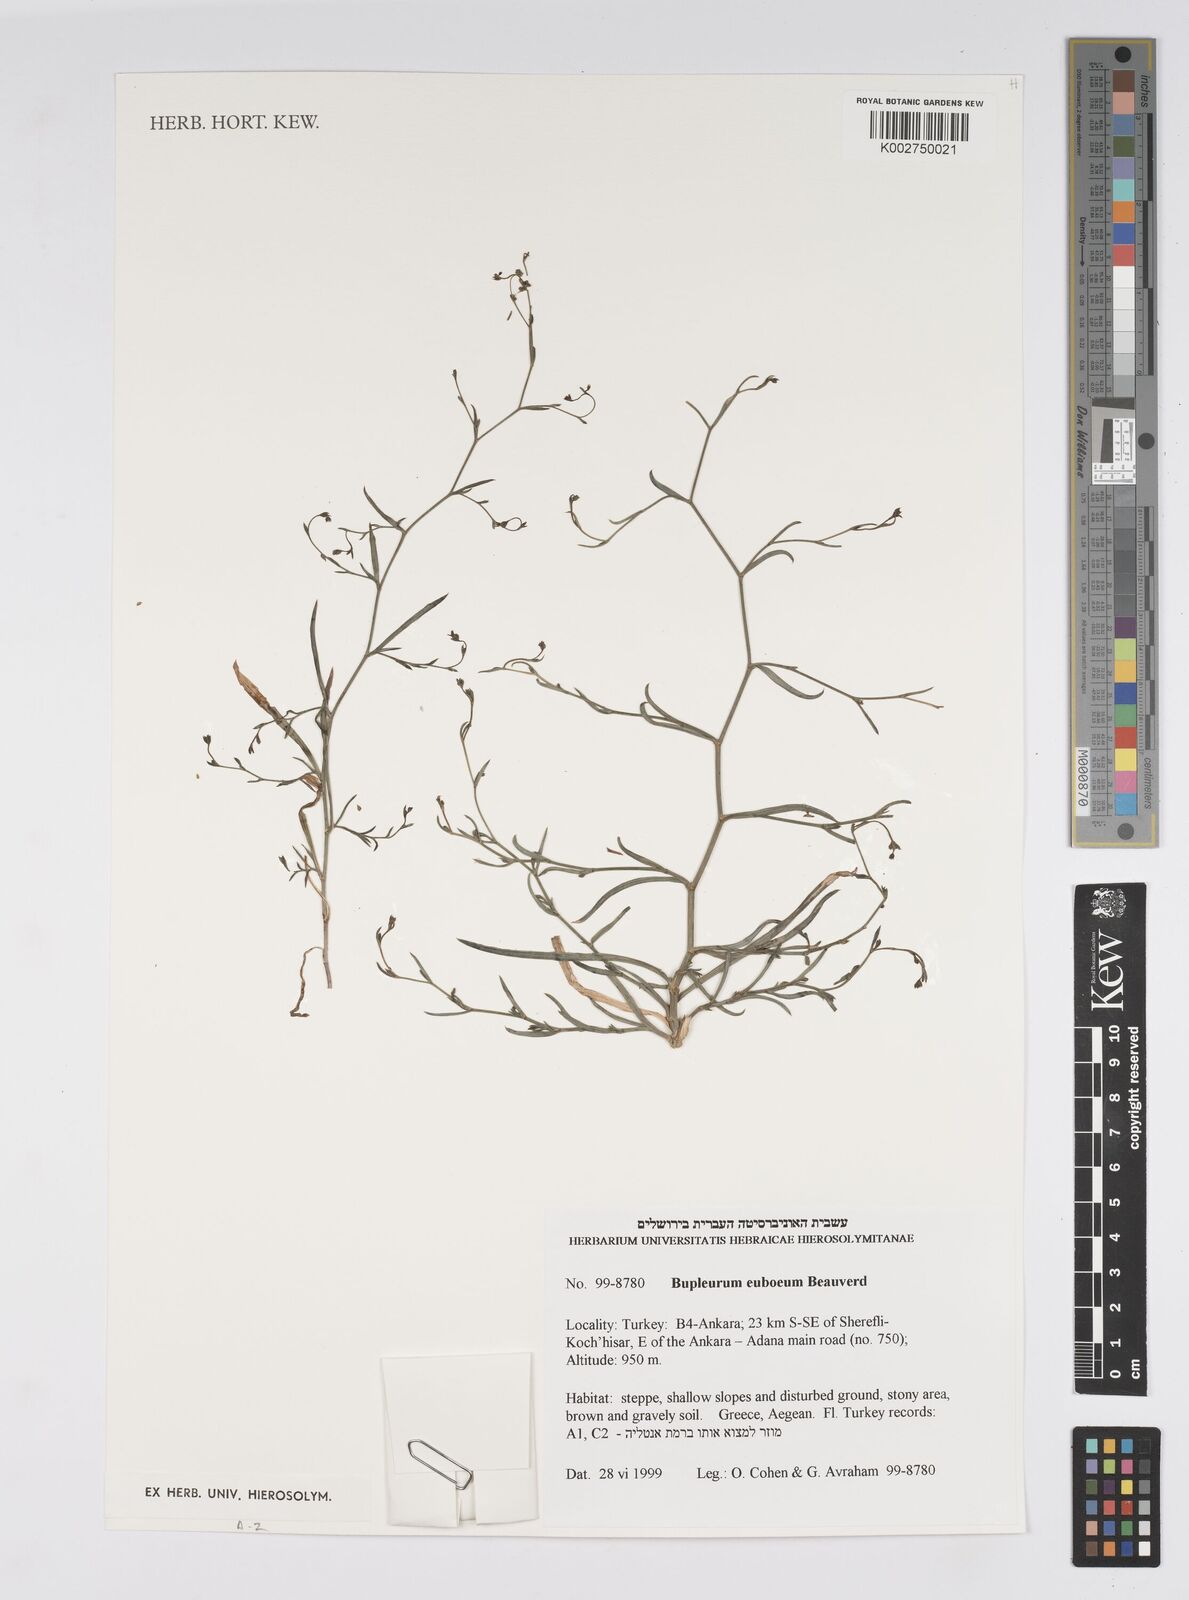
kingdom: Plantae
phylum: Tracheophyta
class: Magnoliopsida
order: Apiales
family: Apiaceae
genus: Bupleurum
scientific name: Bupleurum euboeum
